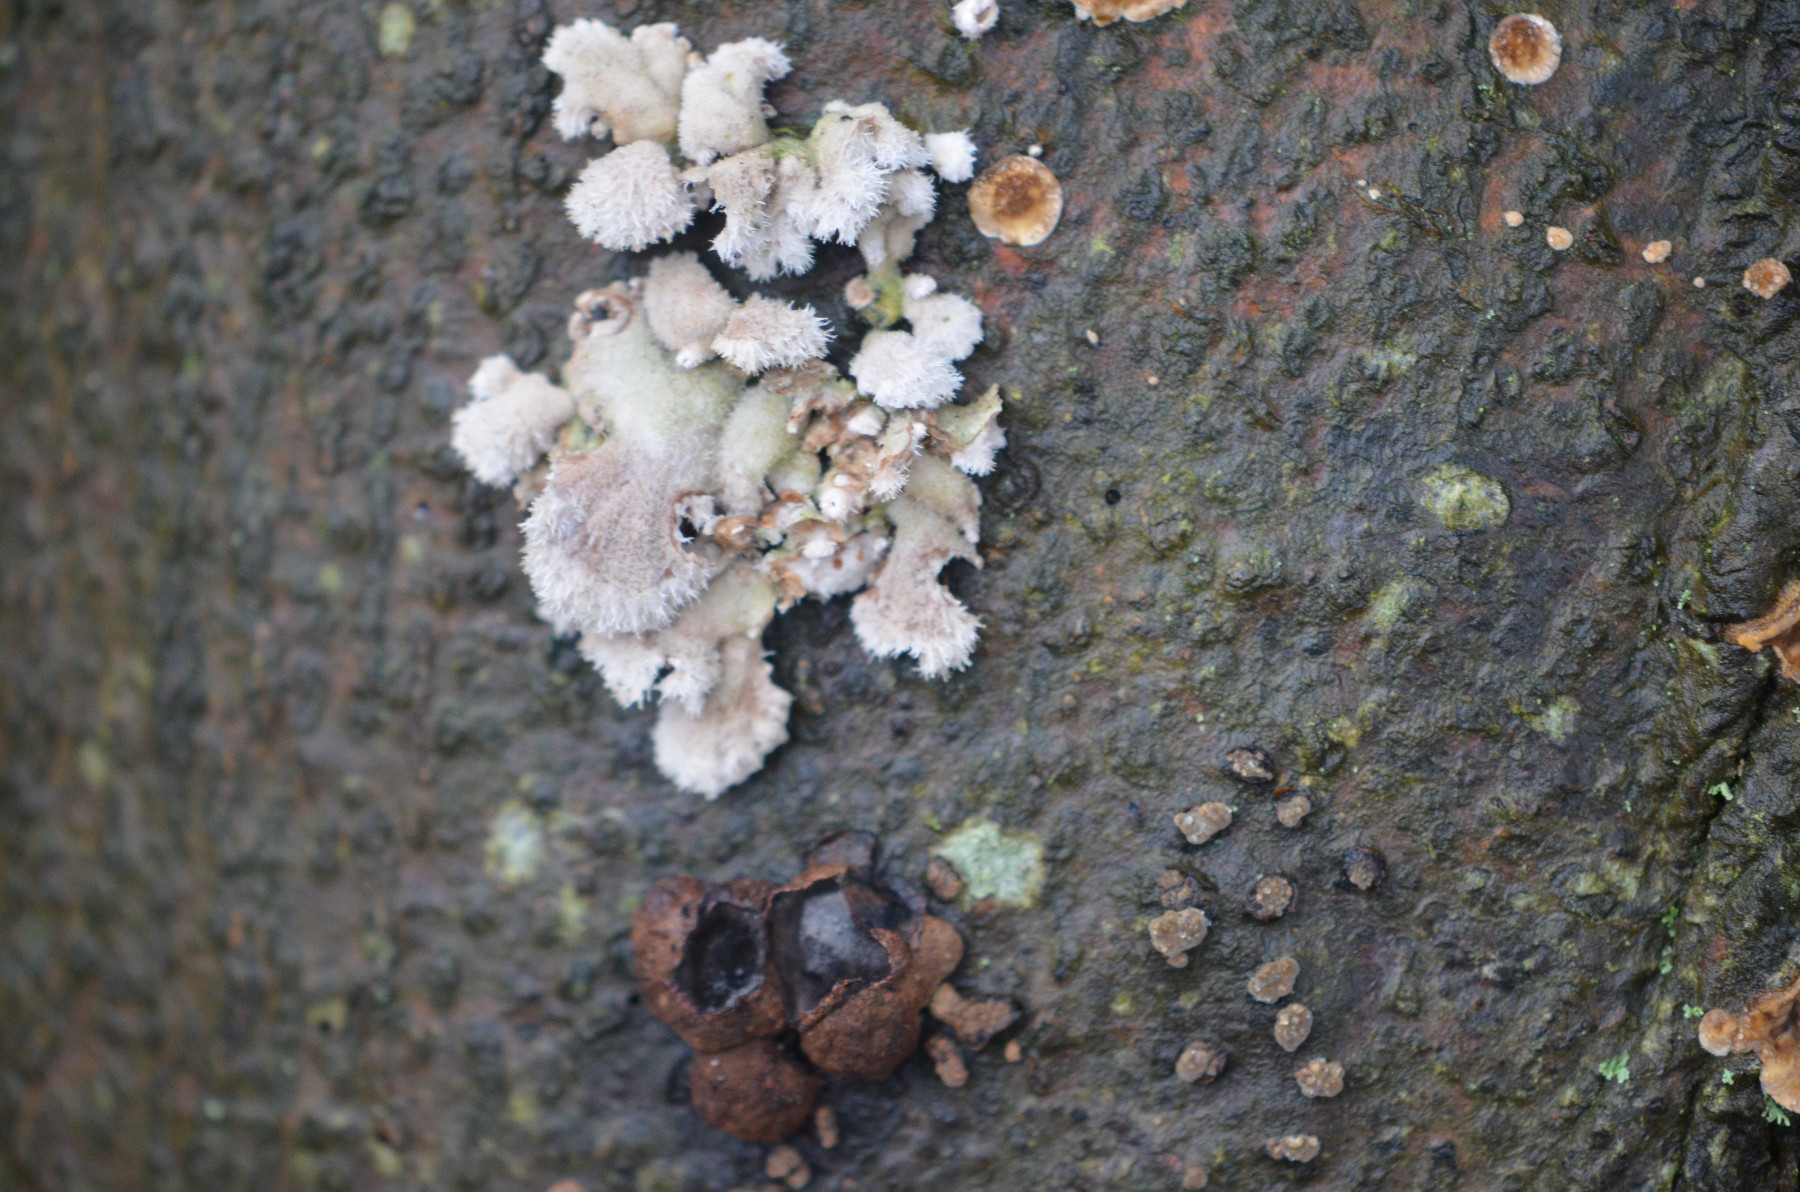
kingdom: Fungi
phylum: Basidiomycota
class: Agaricomycetes
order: Agaricales
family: Schizophyllaceae
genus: Schizophyllum
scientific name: Schizophyllum commune
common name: kløvblad
